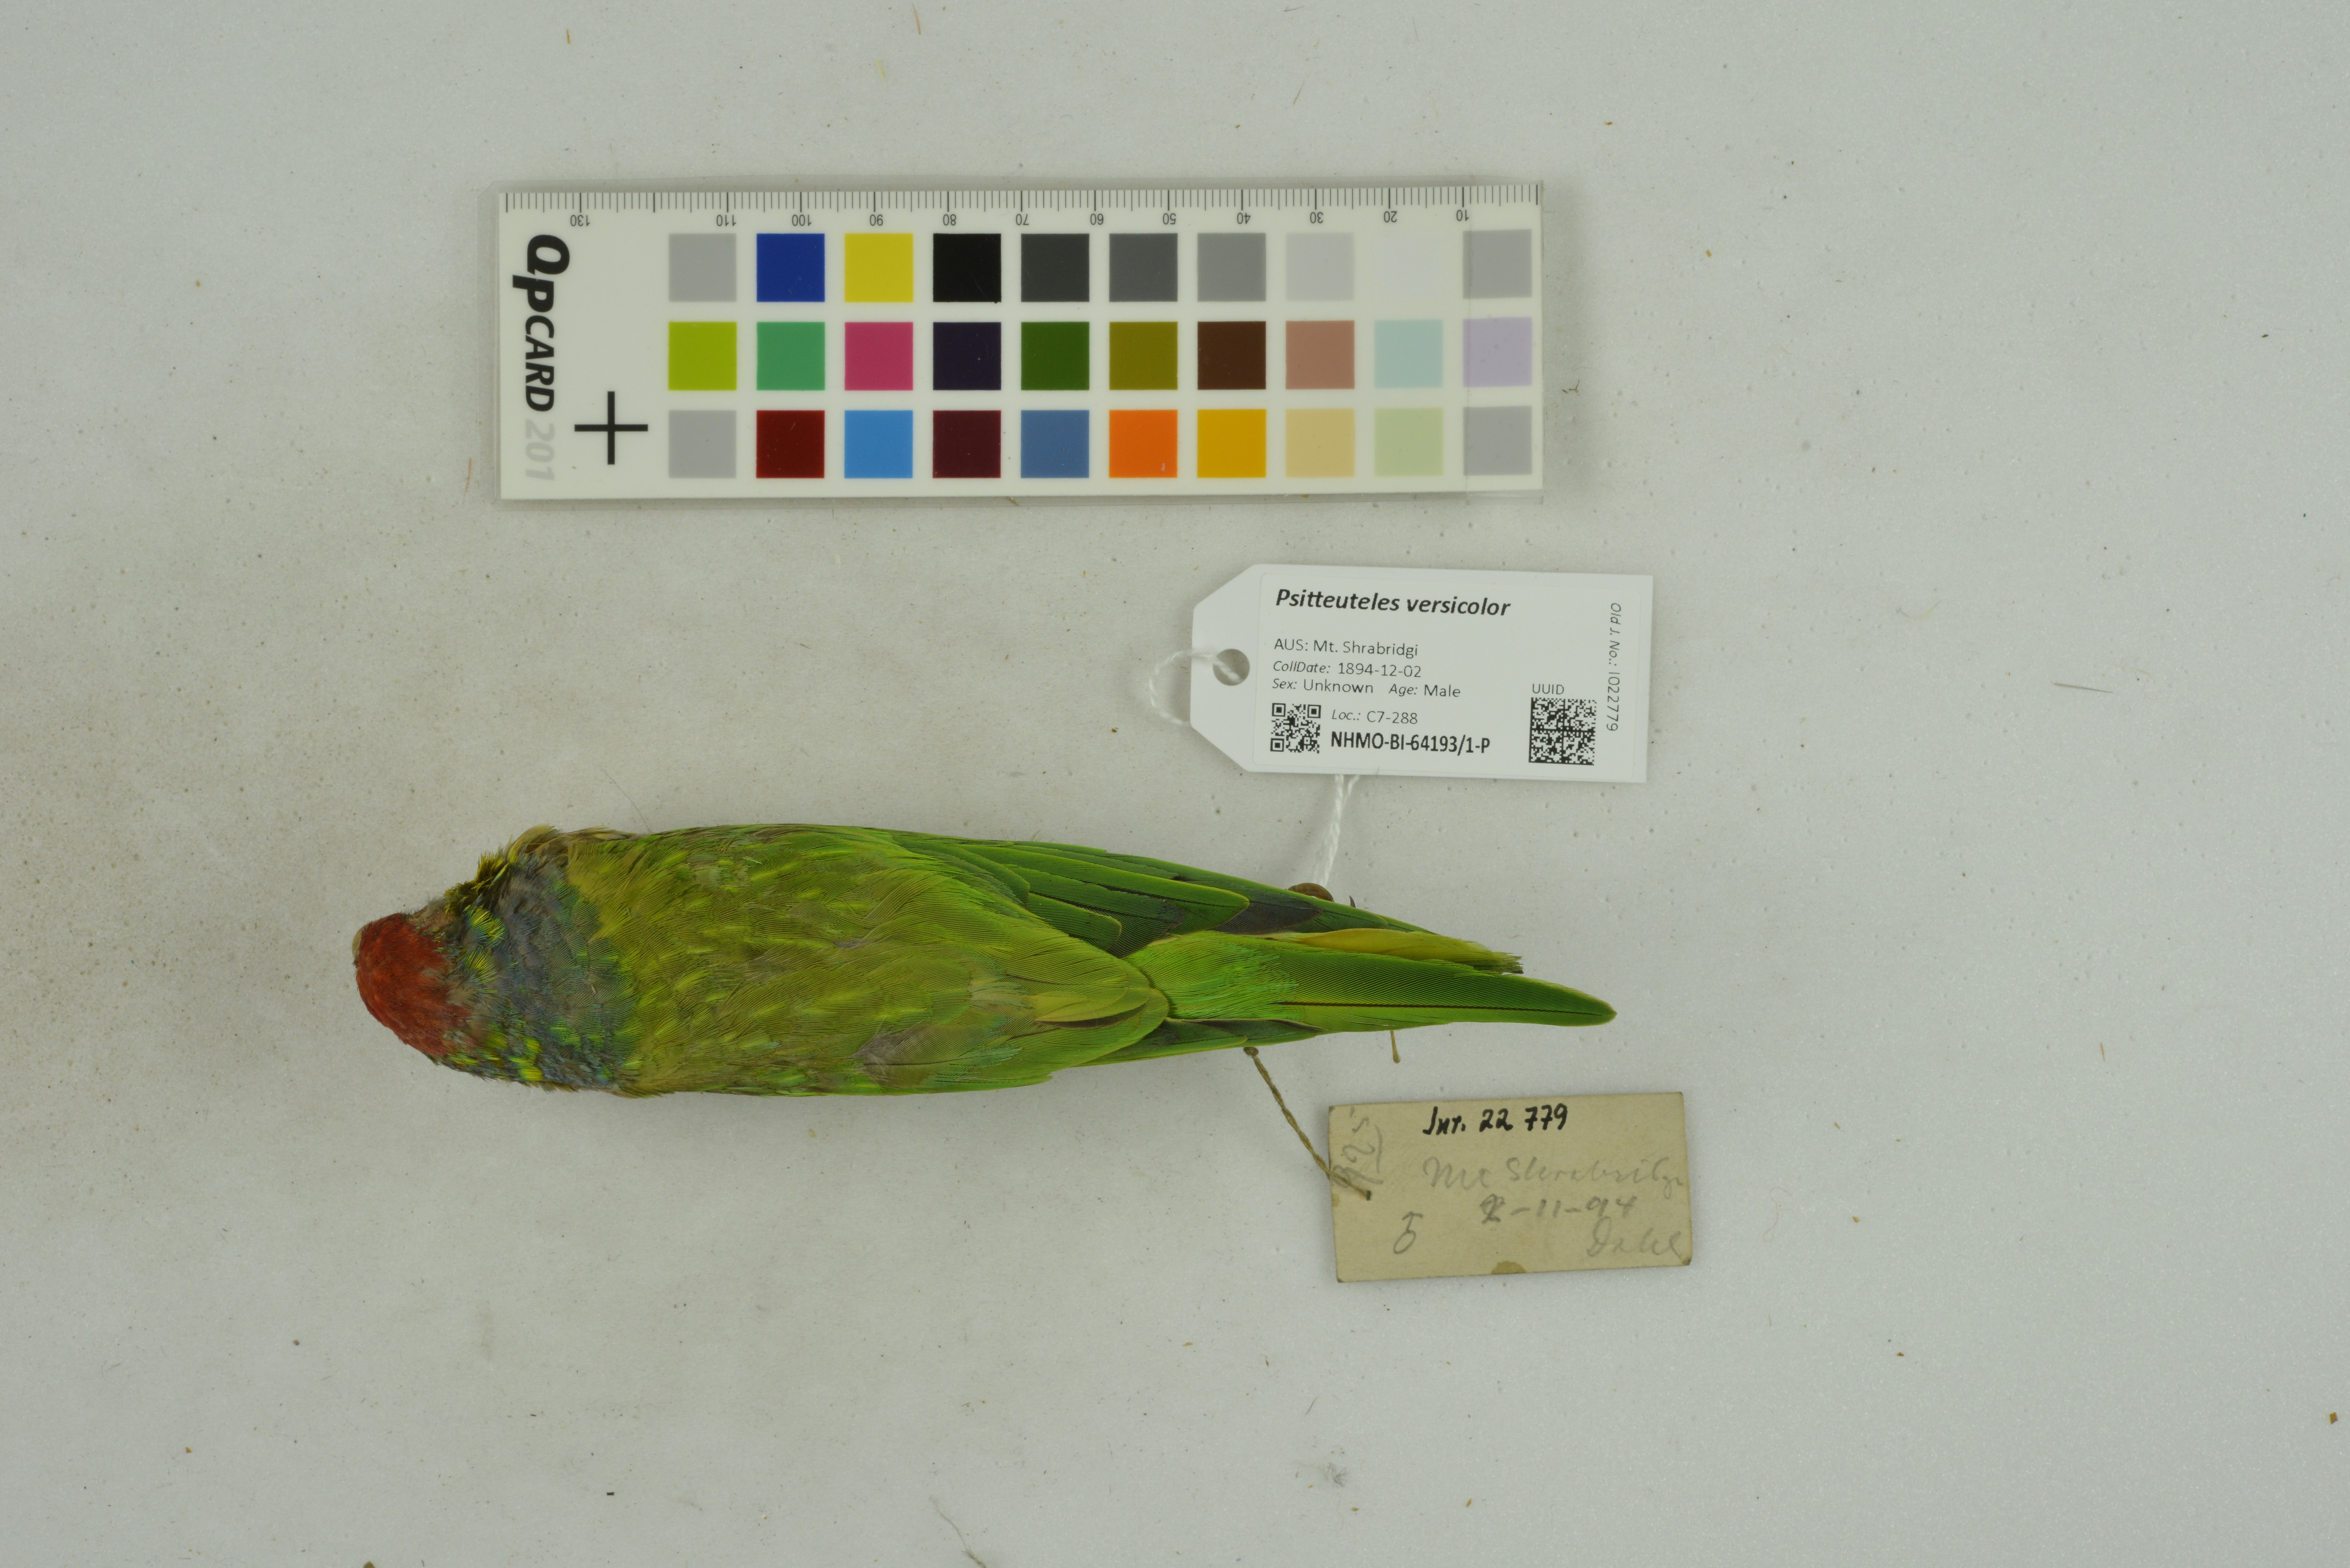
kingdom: Animalia
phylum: Chordata
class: Aves
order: Psittaciformes
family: Psittacidae
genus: Psitteuteles
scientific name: Psitteuteles versicolor
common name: Varied lorikeet
